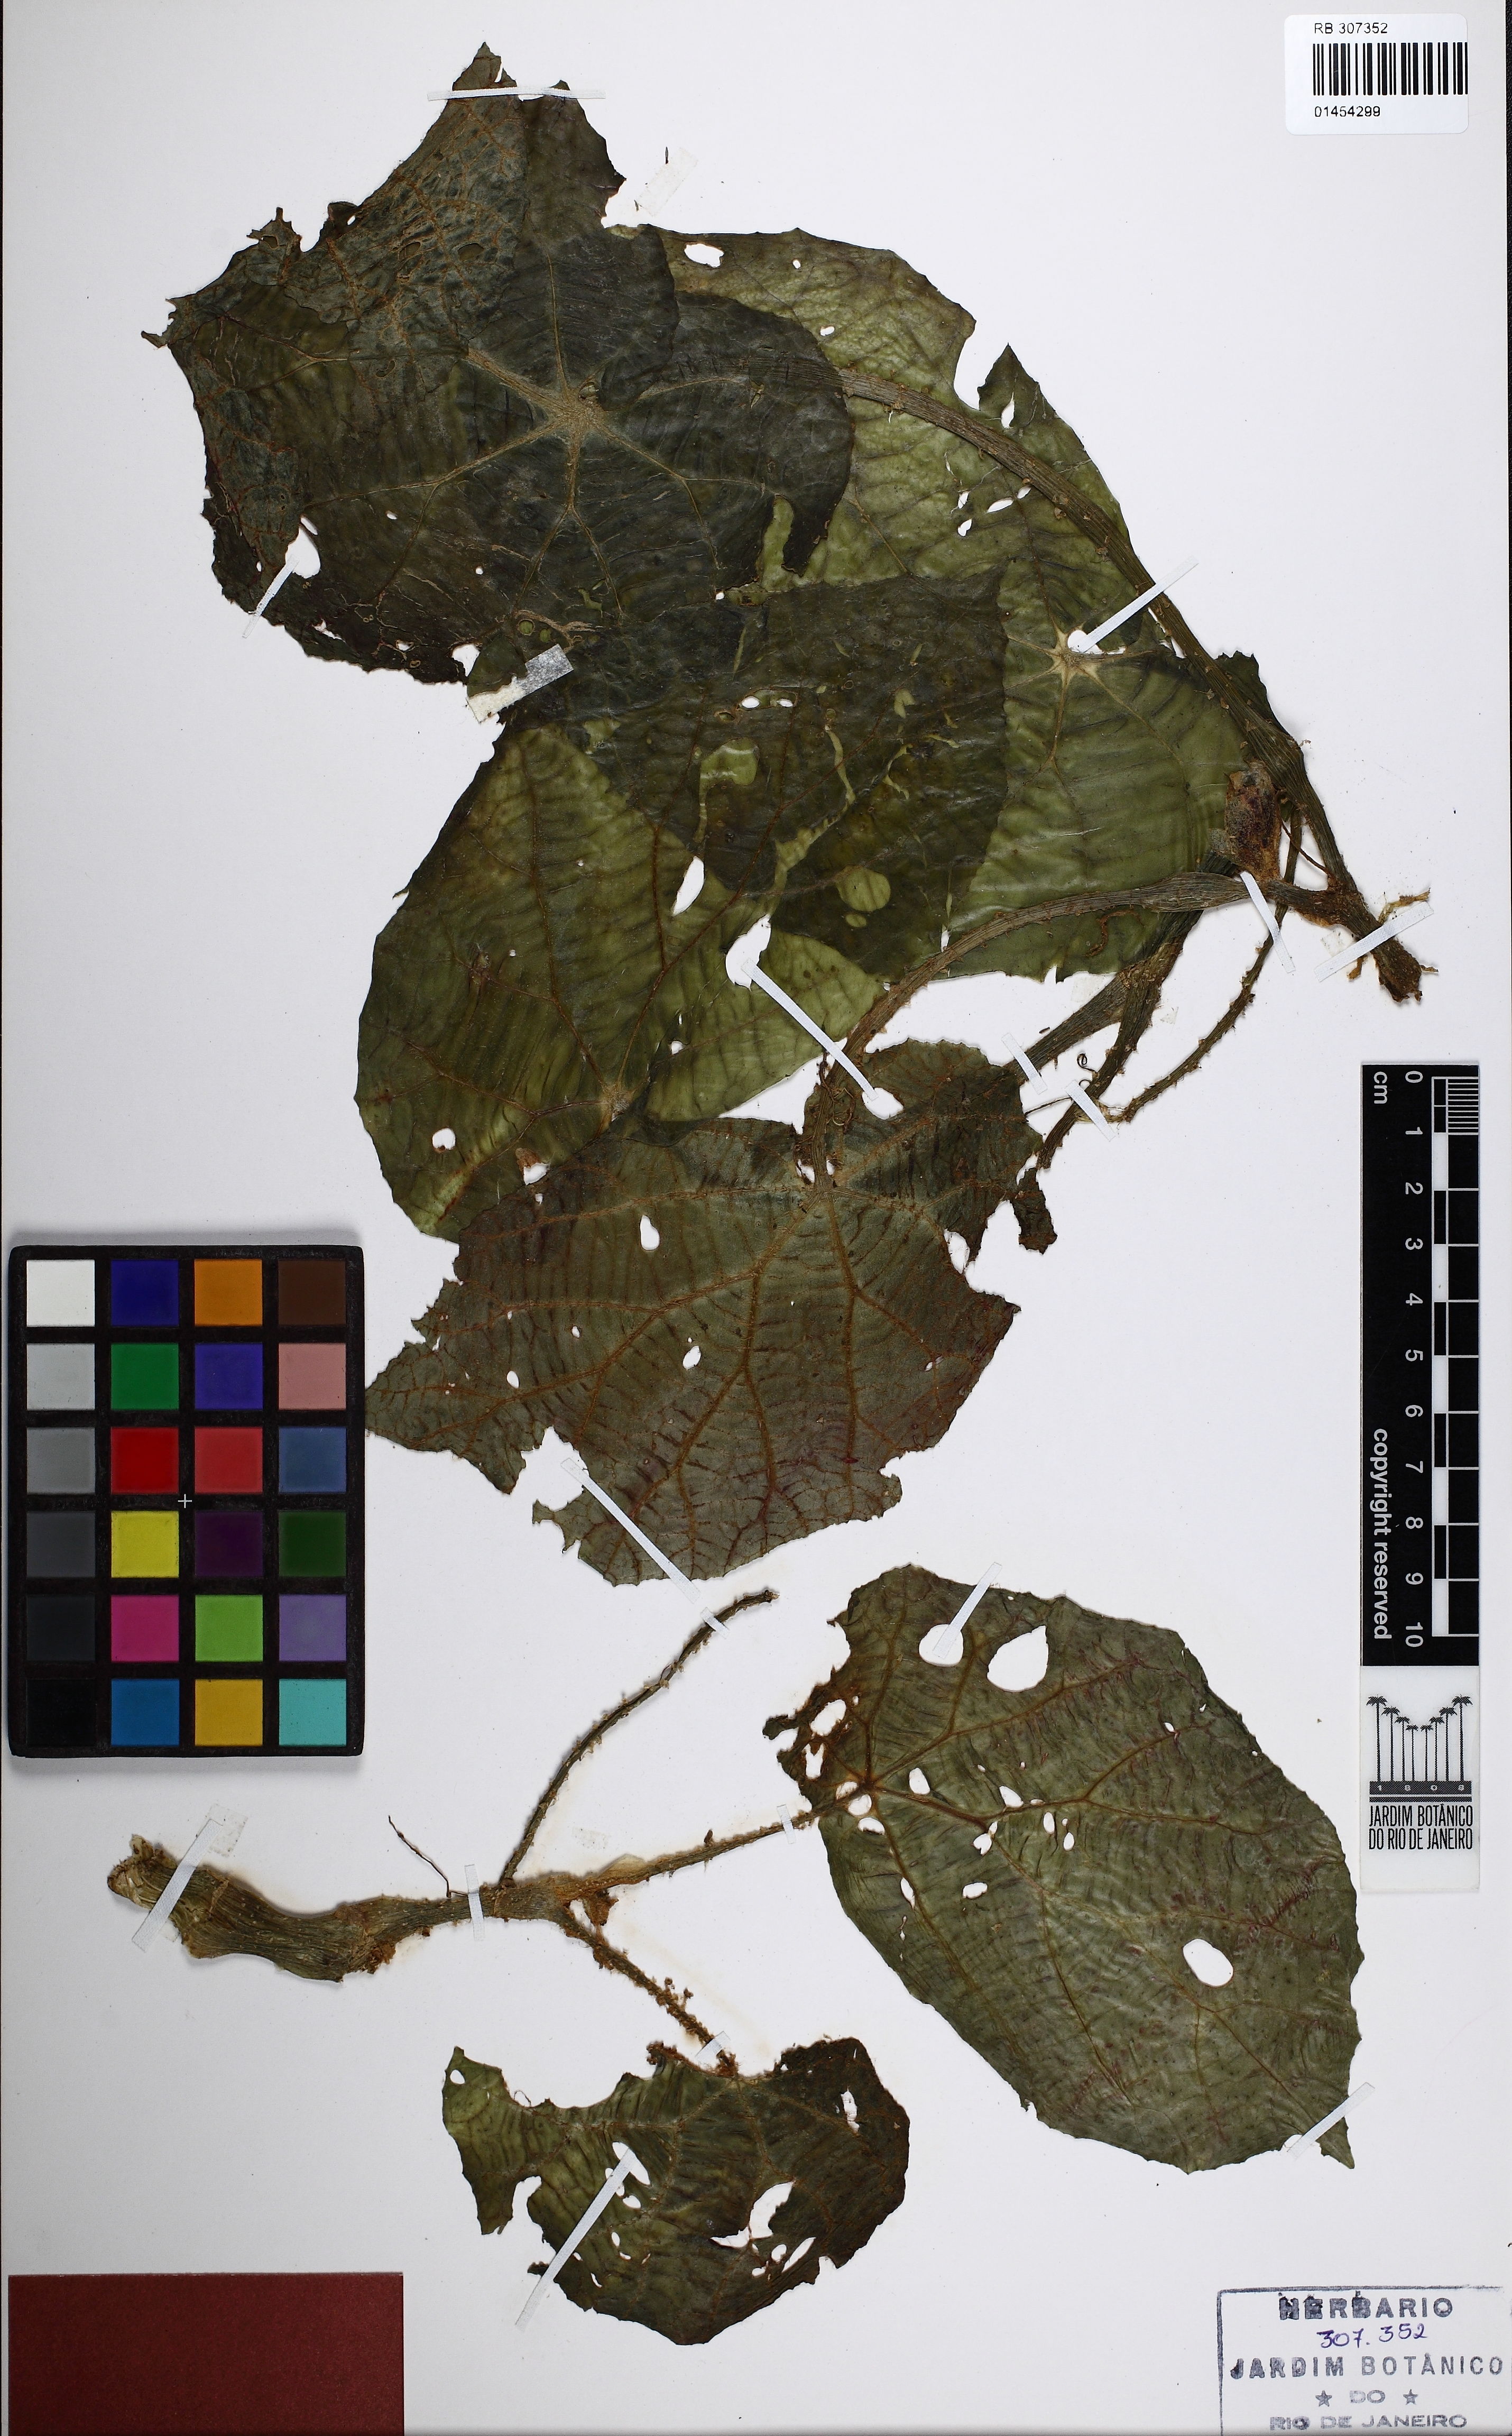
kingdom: Plantae
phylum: Tracheophyta
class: Magnoliopsida
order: Cucurbitales
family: Begoniaceae
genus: Begonia
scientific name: Begonia margaretiana
